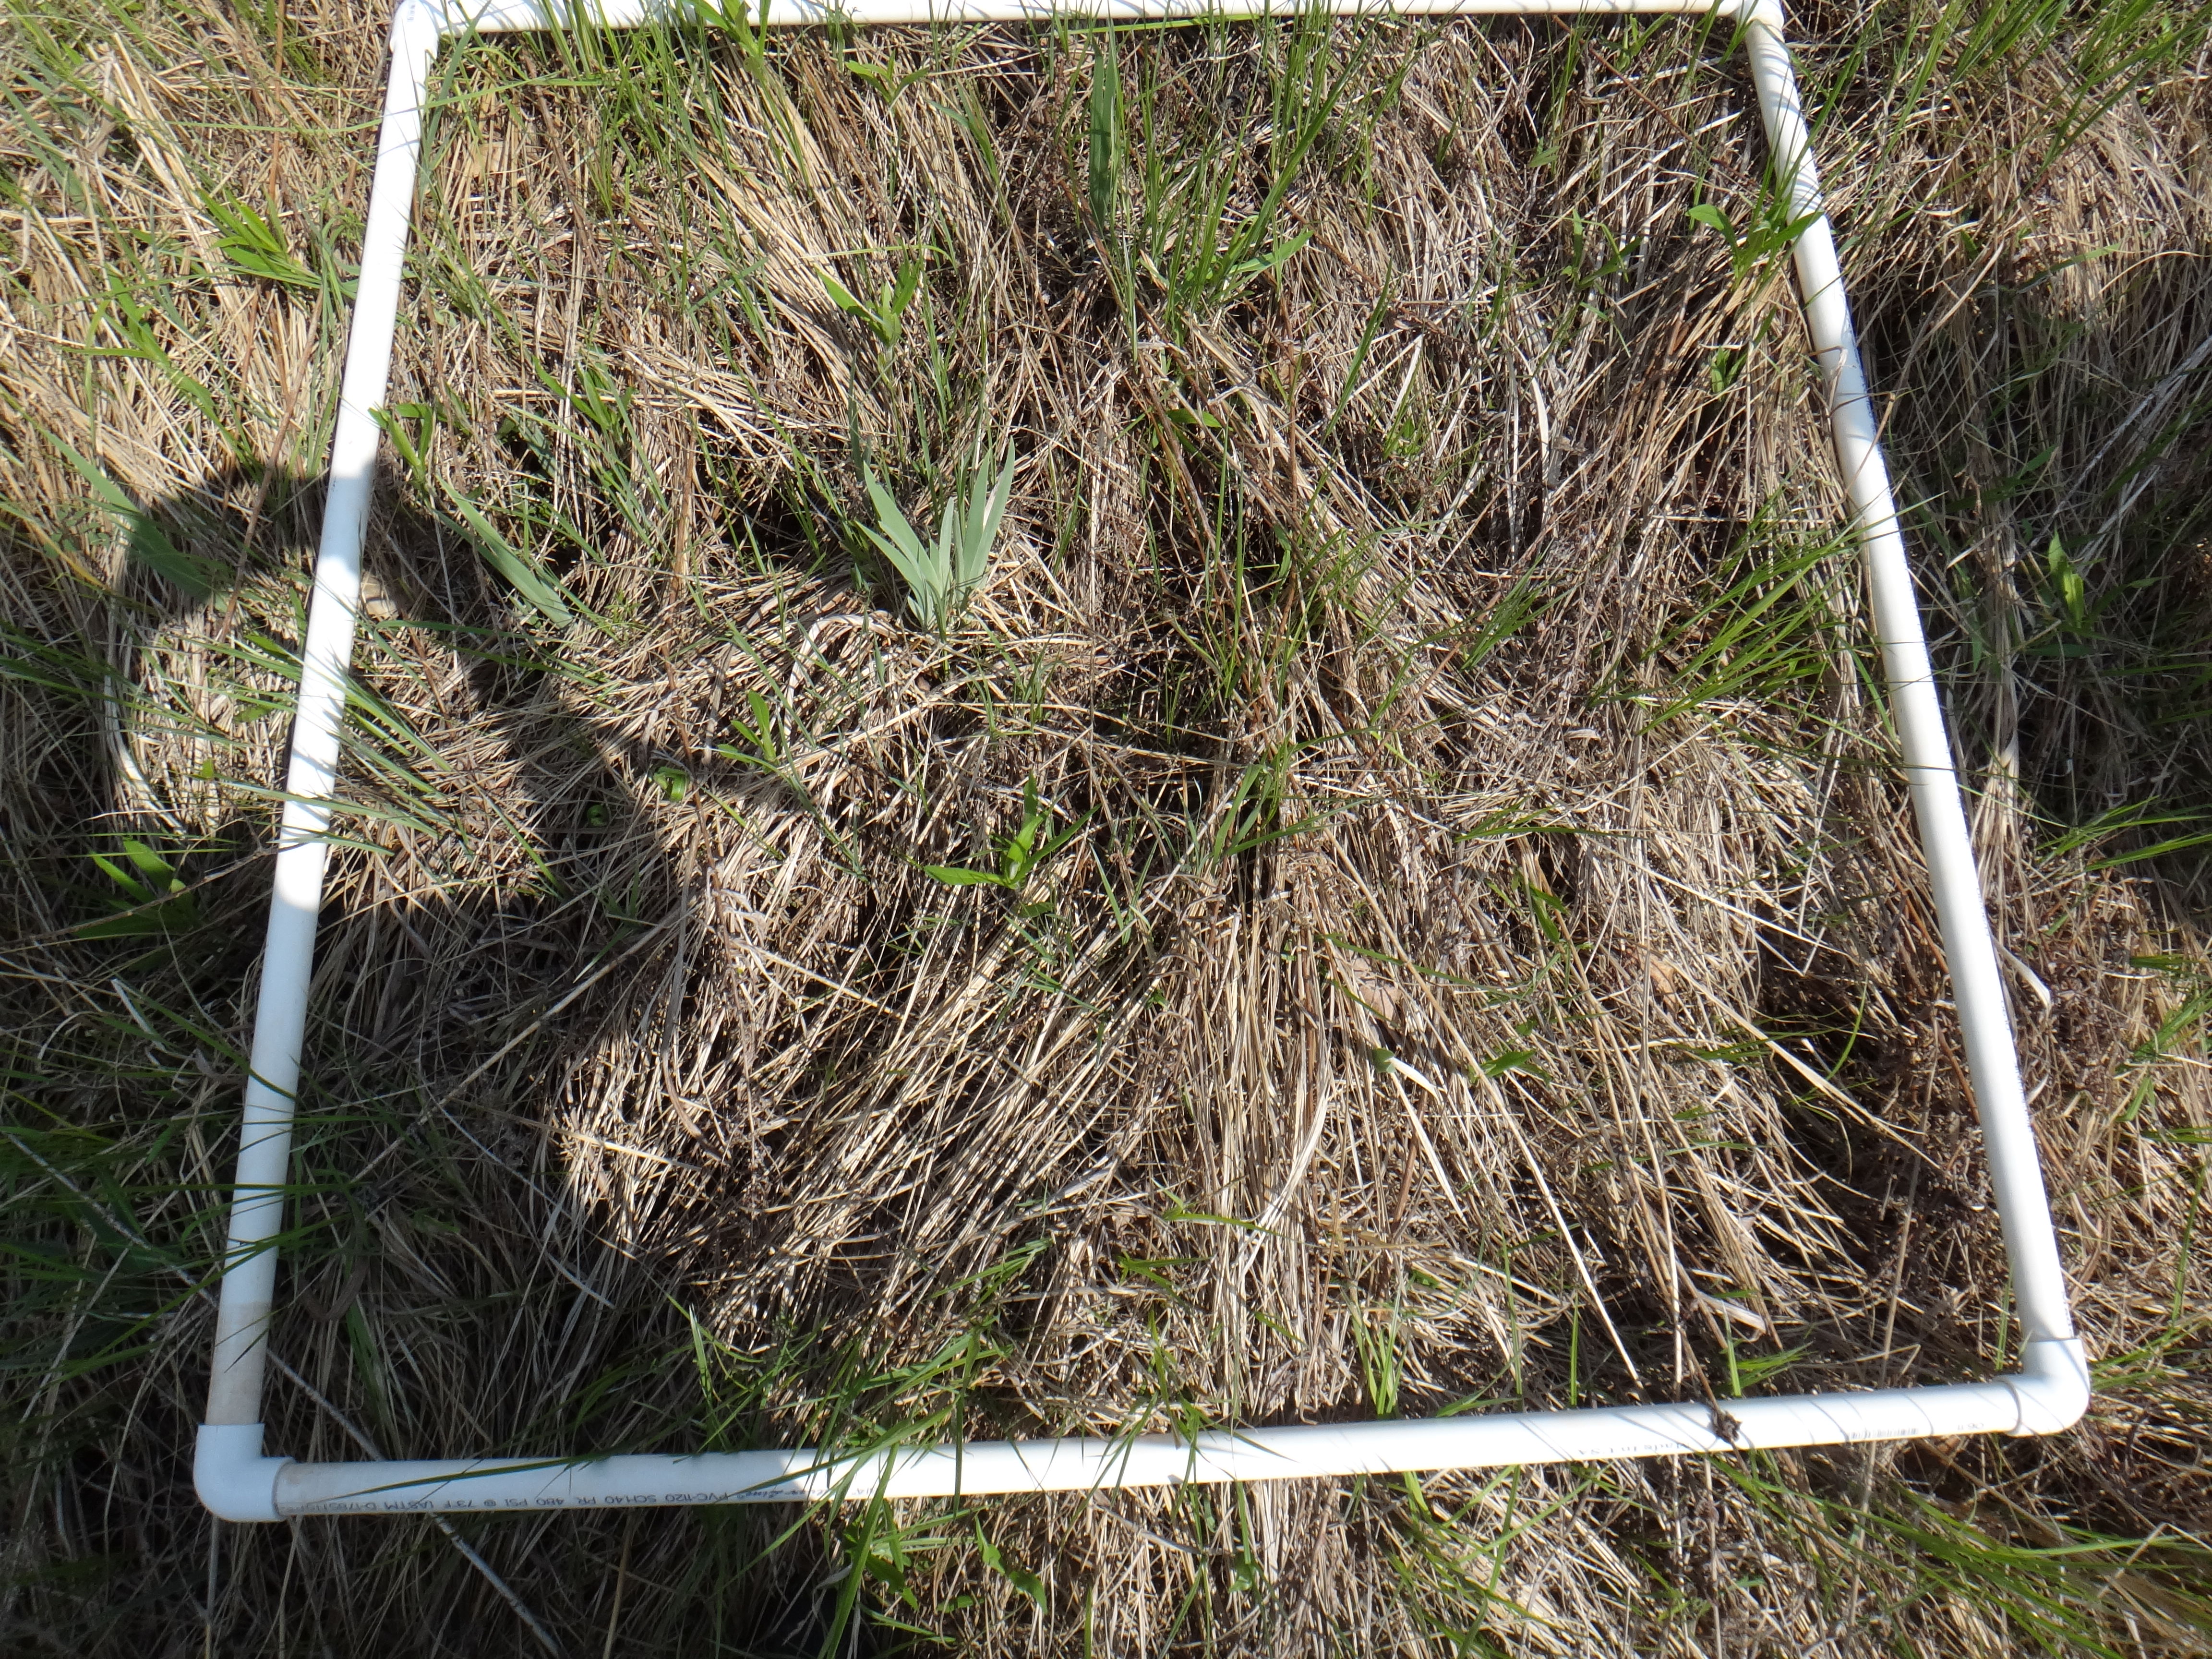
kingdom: Plantae
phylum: Tracheophyta
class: Liliopsida
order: Asparagales
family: Iridaceae
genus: Iris
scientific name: Iris virginica
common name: Southern blue flag
